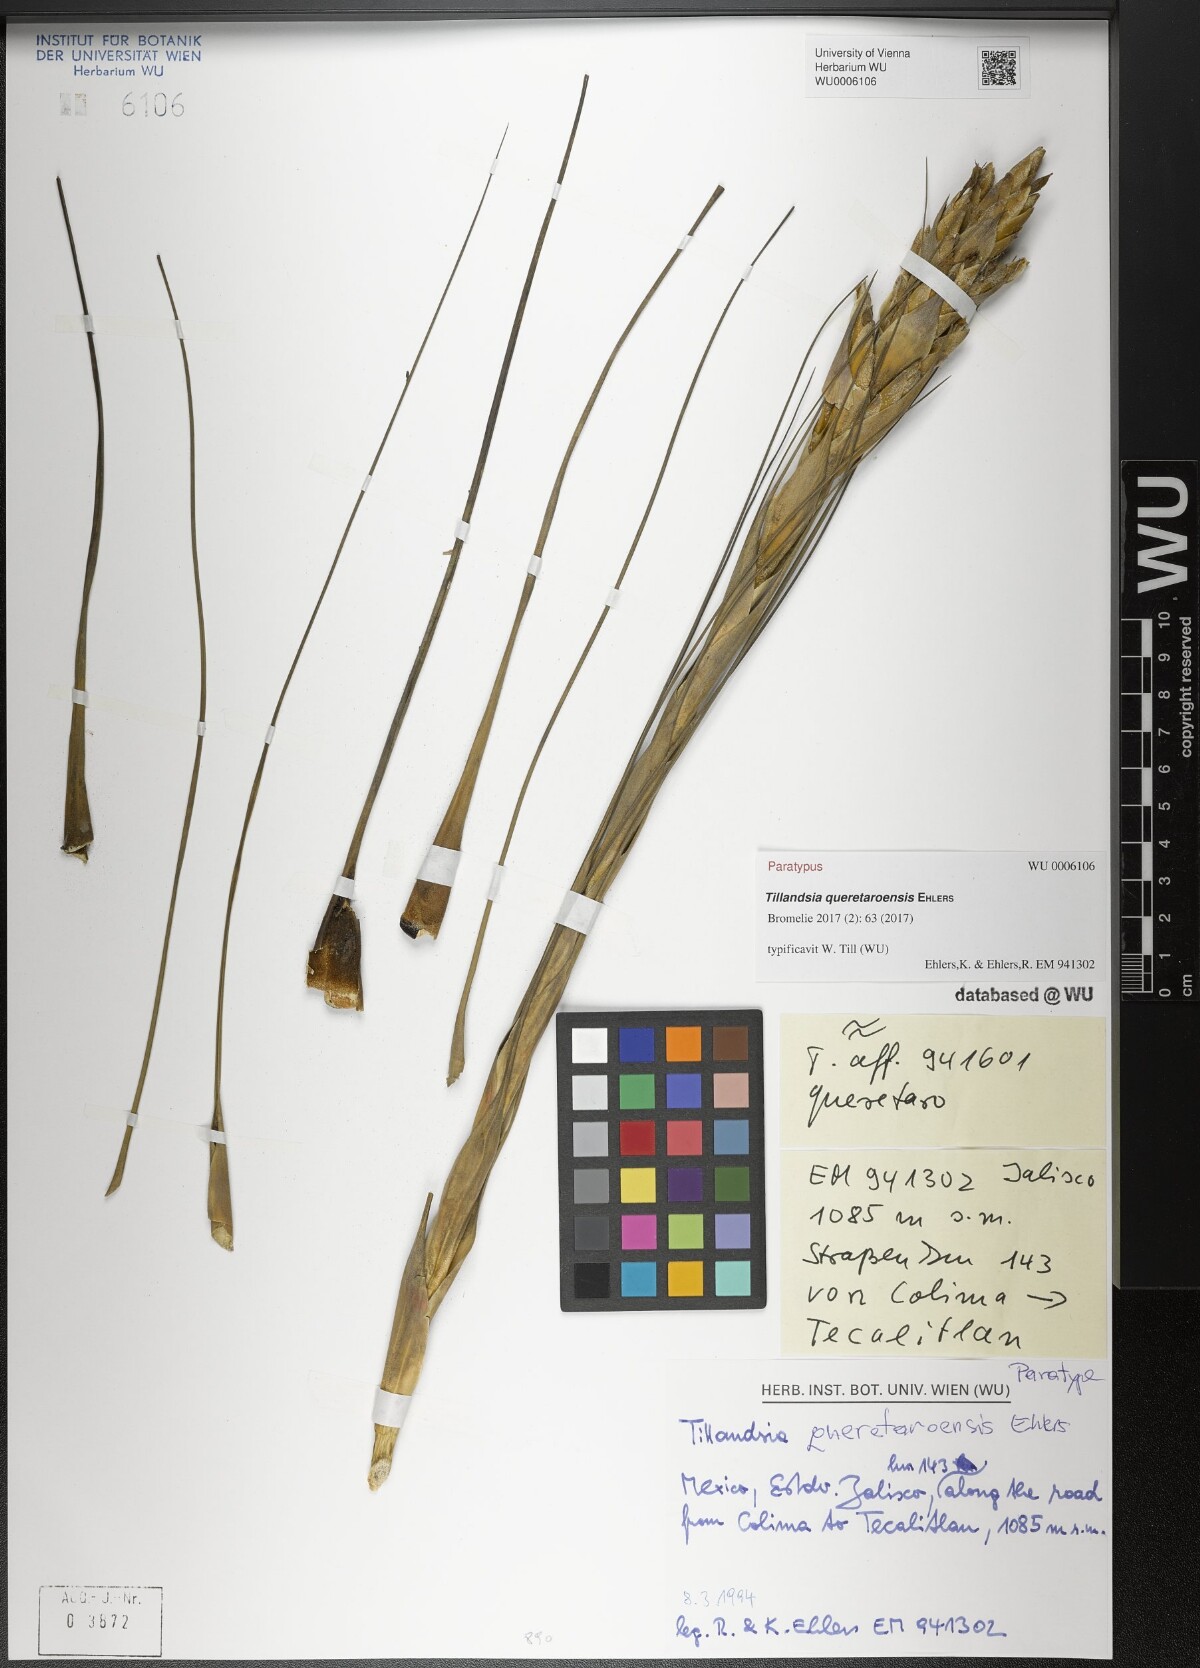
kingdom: Plantae
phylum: Tracheophyta
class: Liliopsida
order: Poales
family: Bromeliaceae
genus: Tillandsia
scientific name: Tillandsia queretaroensis
